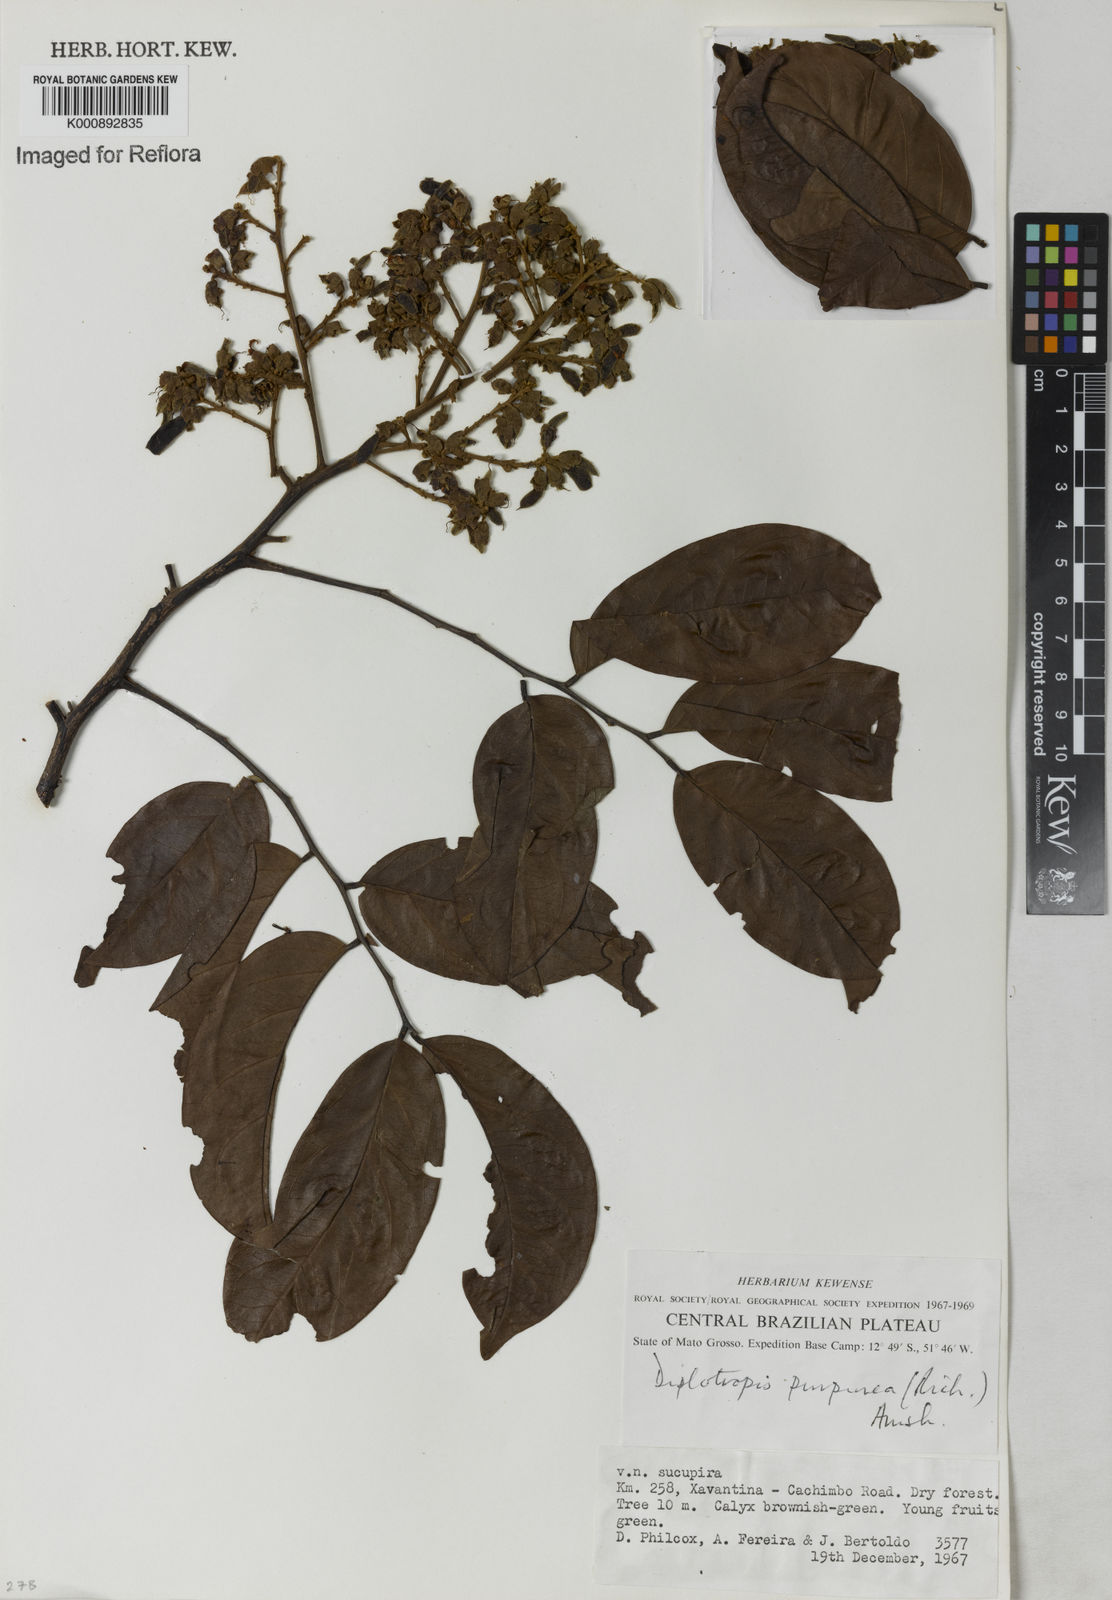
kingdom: Plantae
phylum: Tracheophyta
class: Magnoliopsida
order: Fabales
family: Fabaceae
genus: Diplotropis
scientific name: Diplotropis
